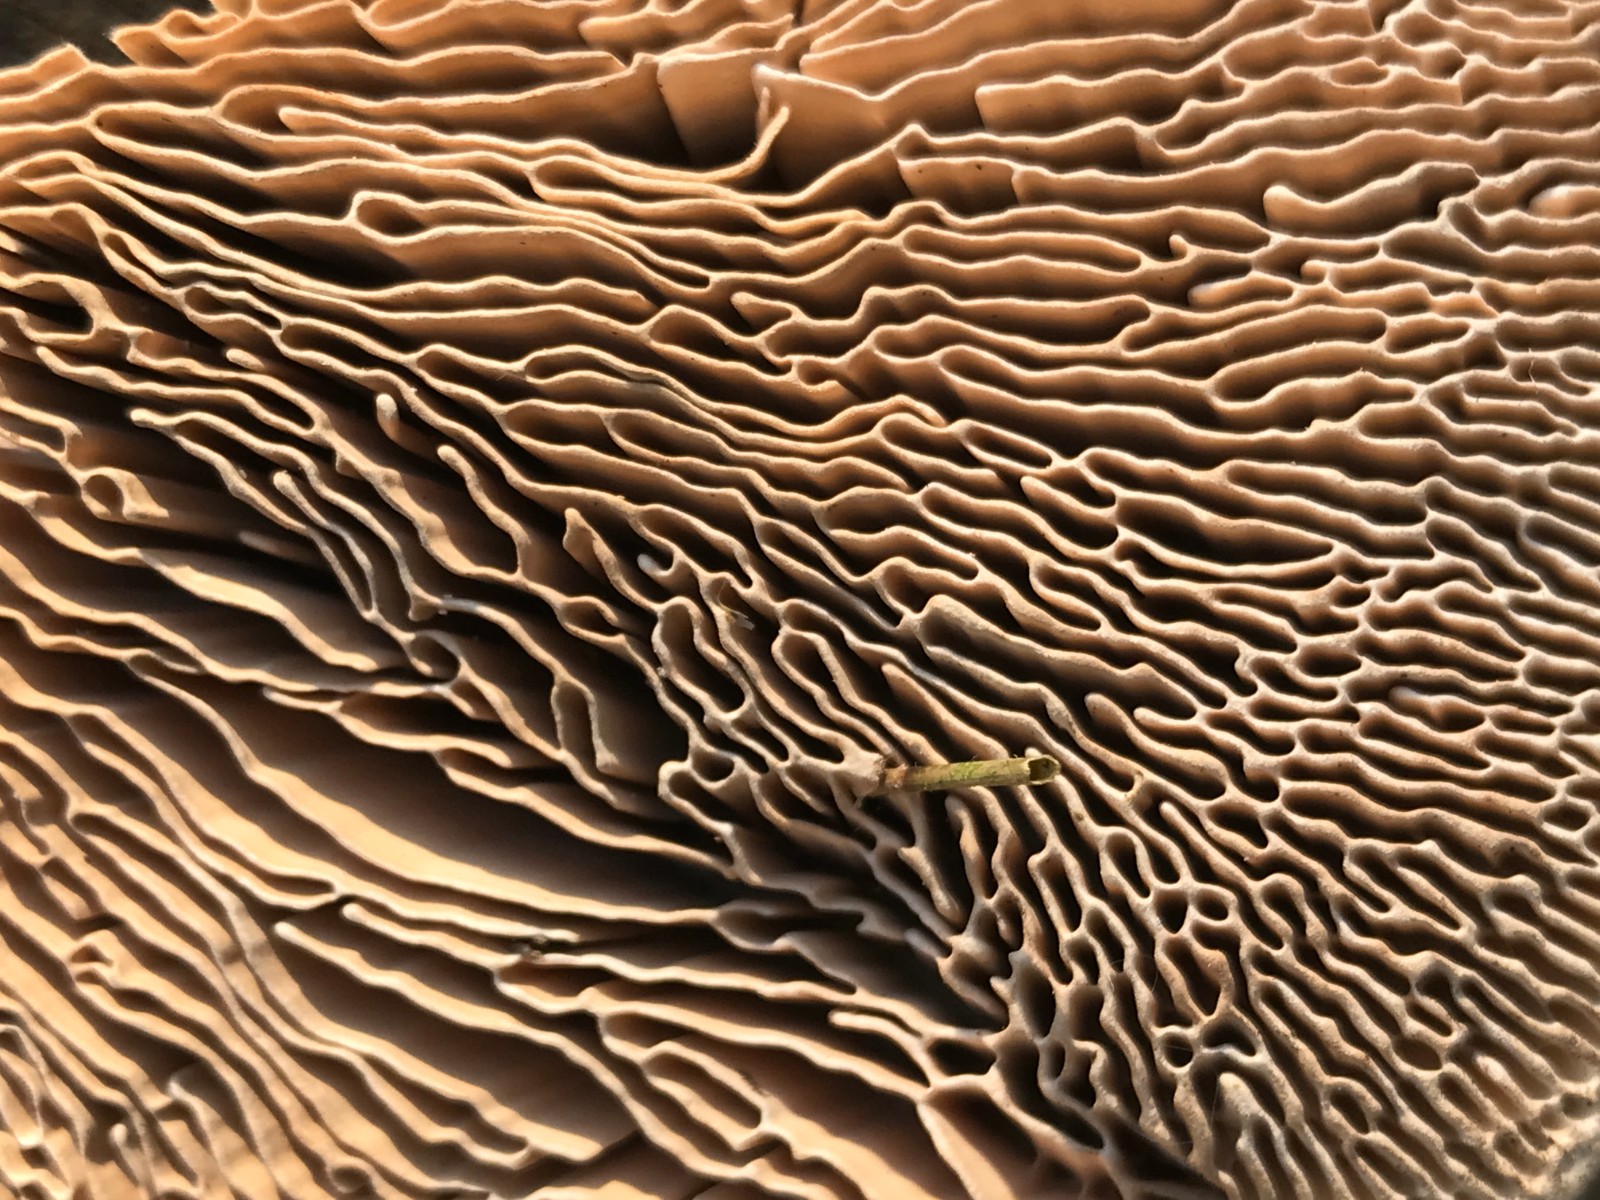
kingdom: Fungi
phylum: Basidiomycota
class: Agaricomycetes
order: Polyporales
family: Fomitopsidaceae
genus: Daedalea
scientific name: Daedalea quercina
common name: ege-labyrintsvamp
